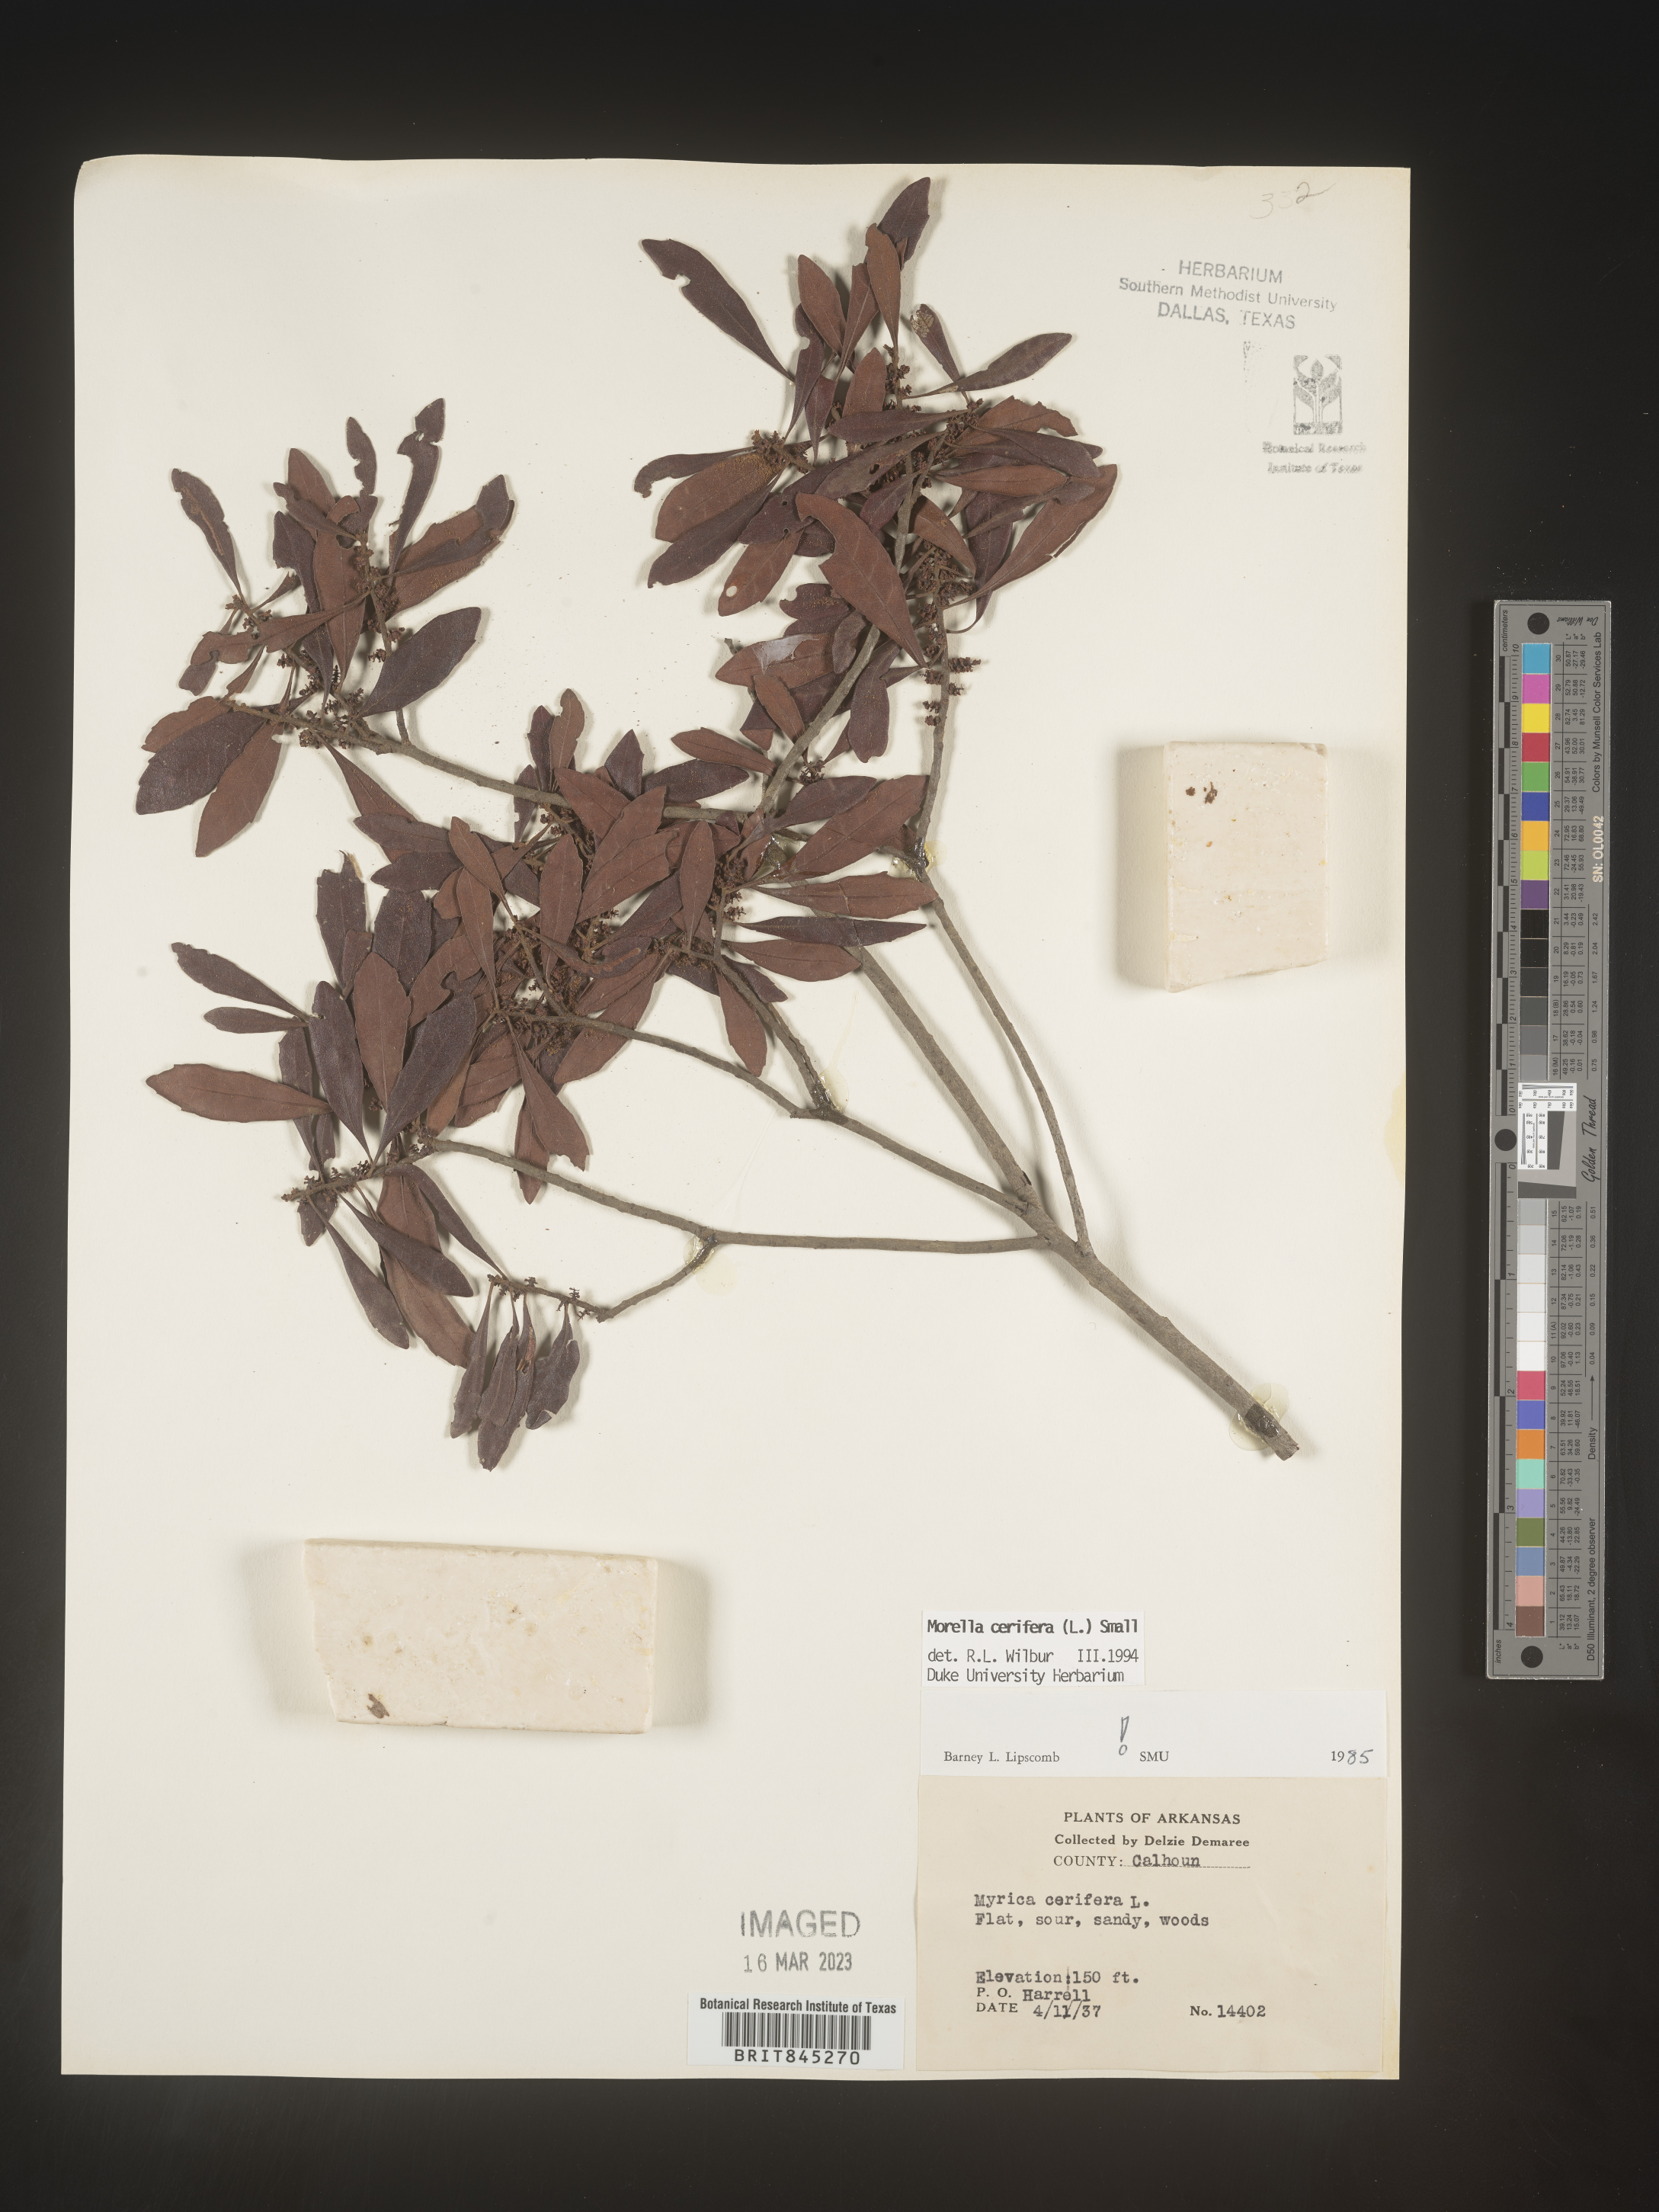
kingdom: Plantae
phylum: Tracheophyta
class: Magnoliopsida
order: Fagales
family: Myricaceae
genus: Morella
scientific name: Morella cerifera
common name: Wax myrtle
